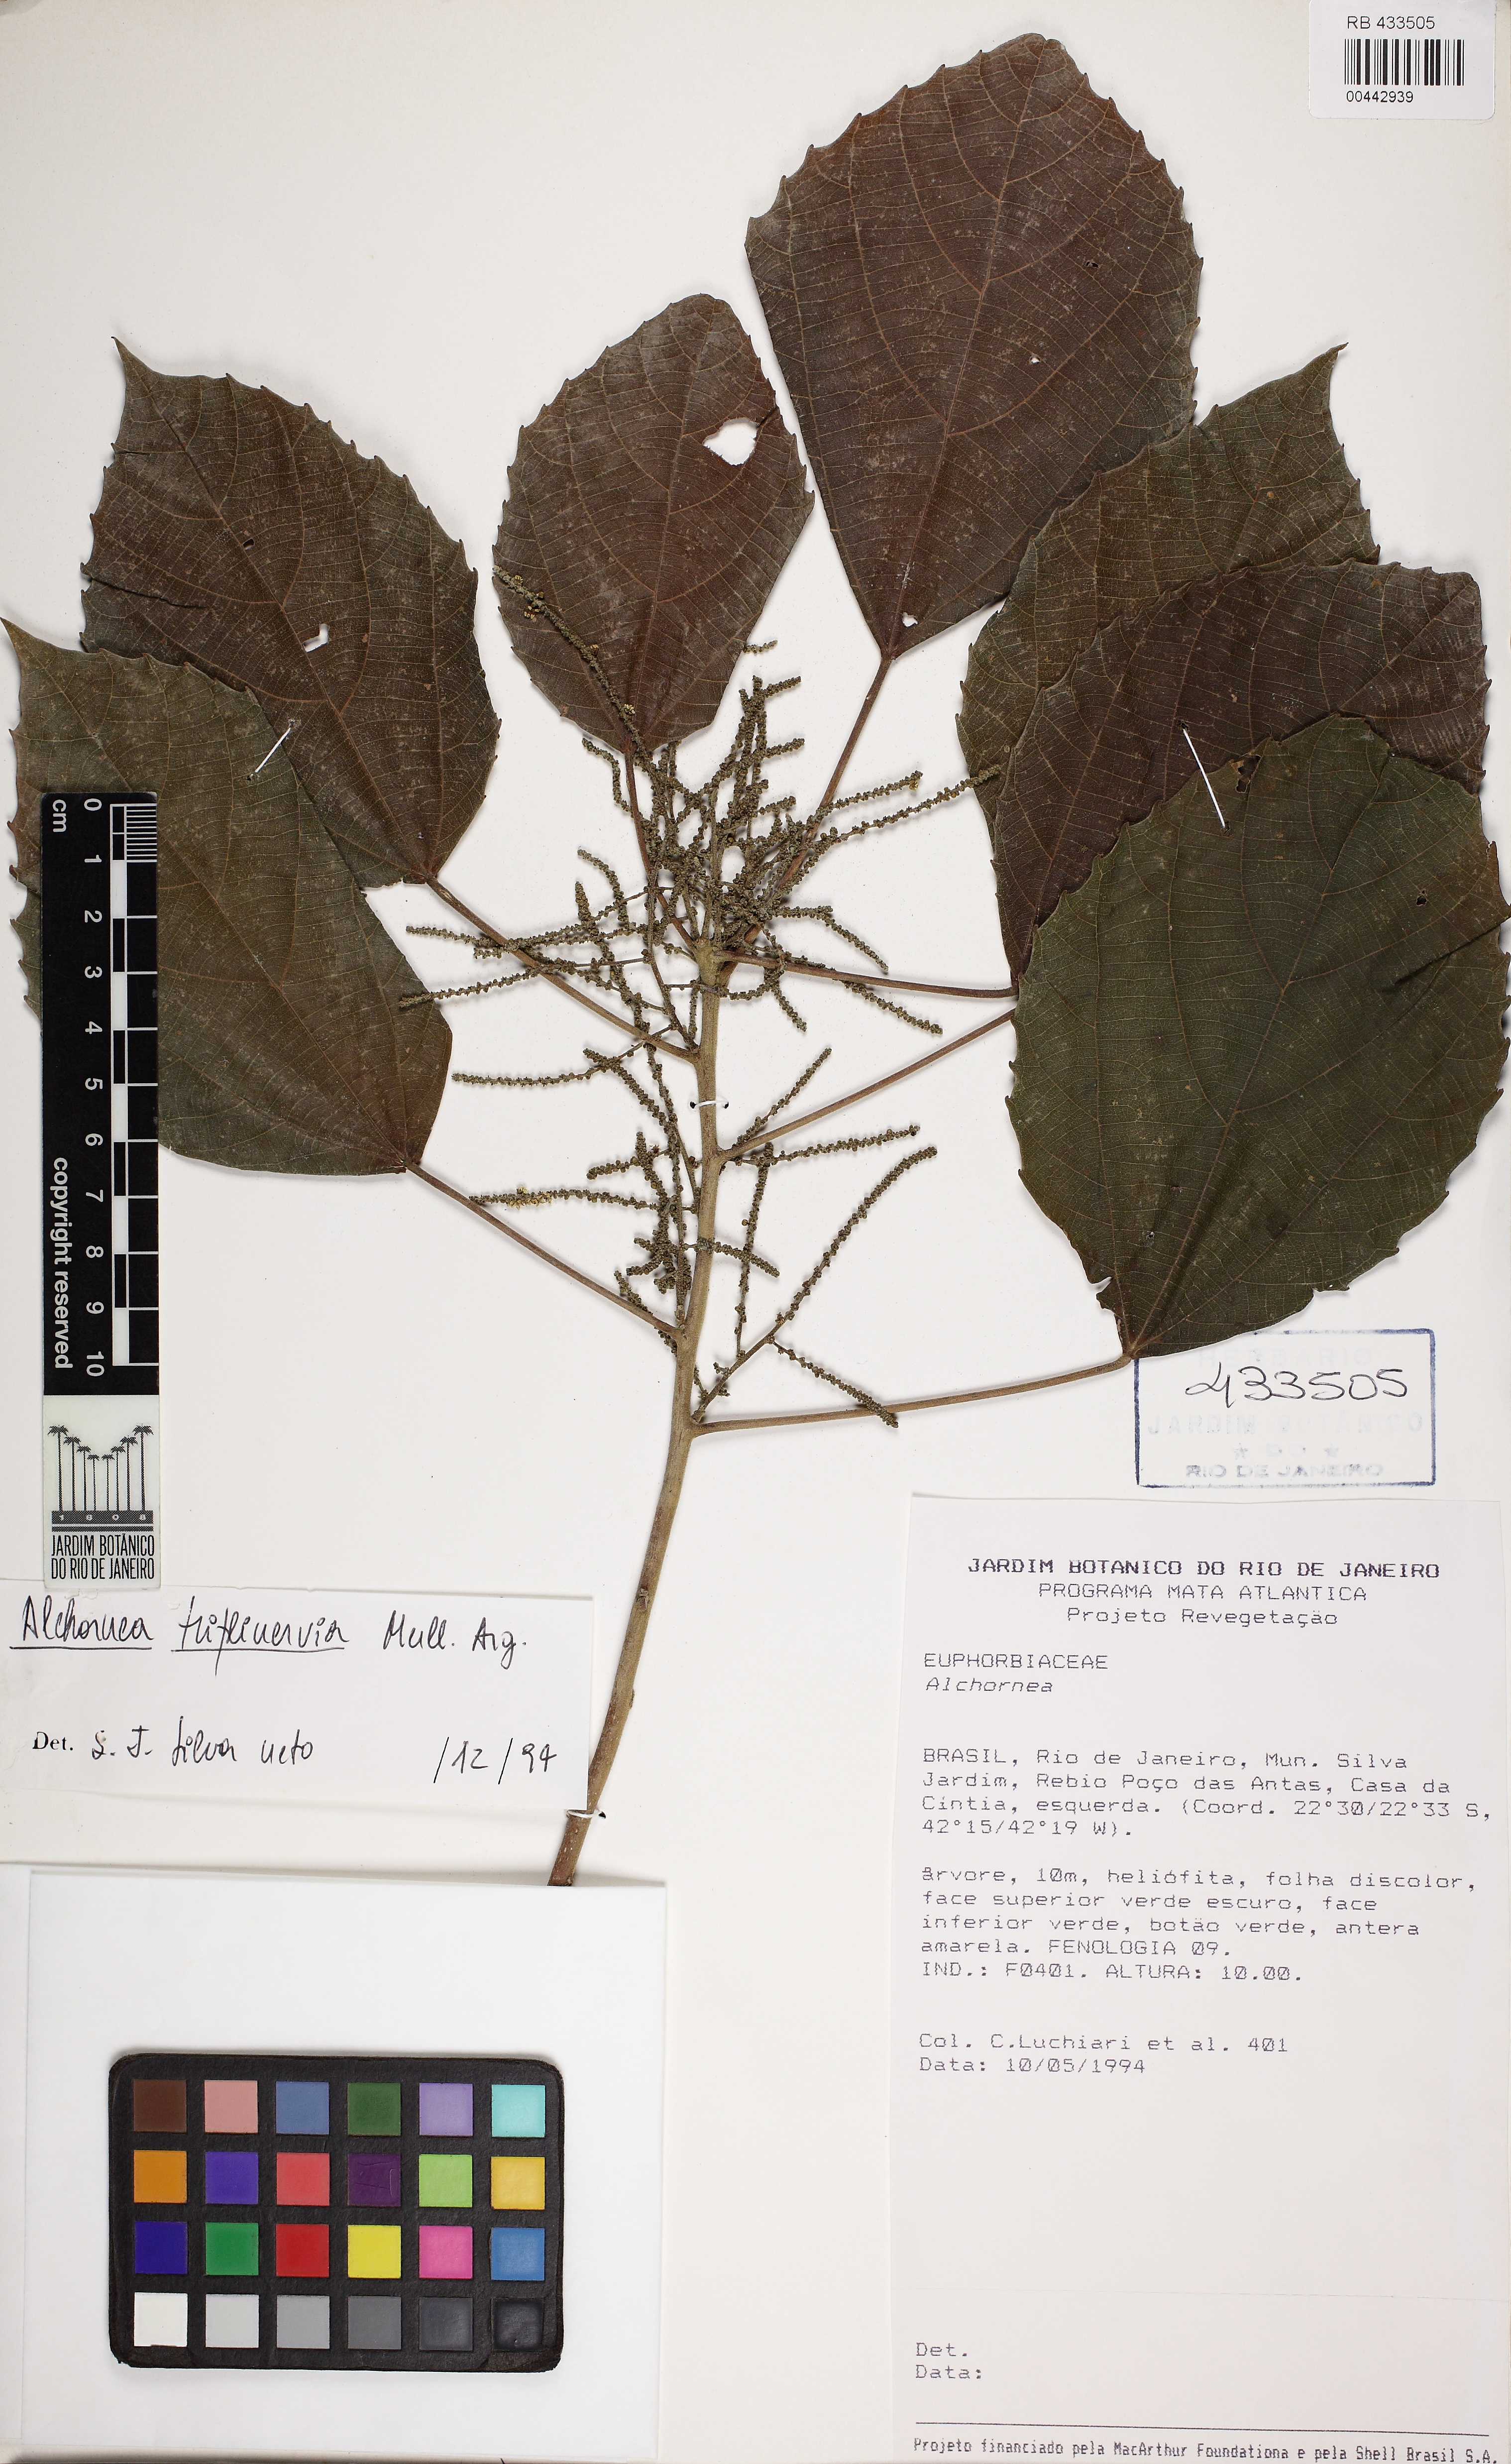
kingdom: Plantae
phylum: Tracheophyta
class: Magnoliopsida
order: Malpighiales
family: Euphorbiaceae
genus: Alchornea
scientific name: Alchornea triplinervia
